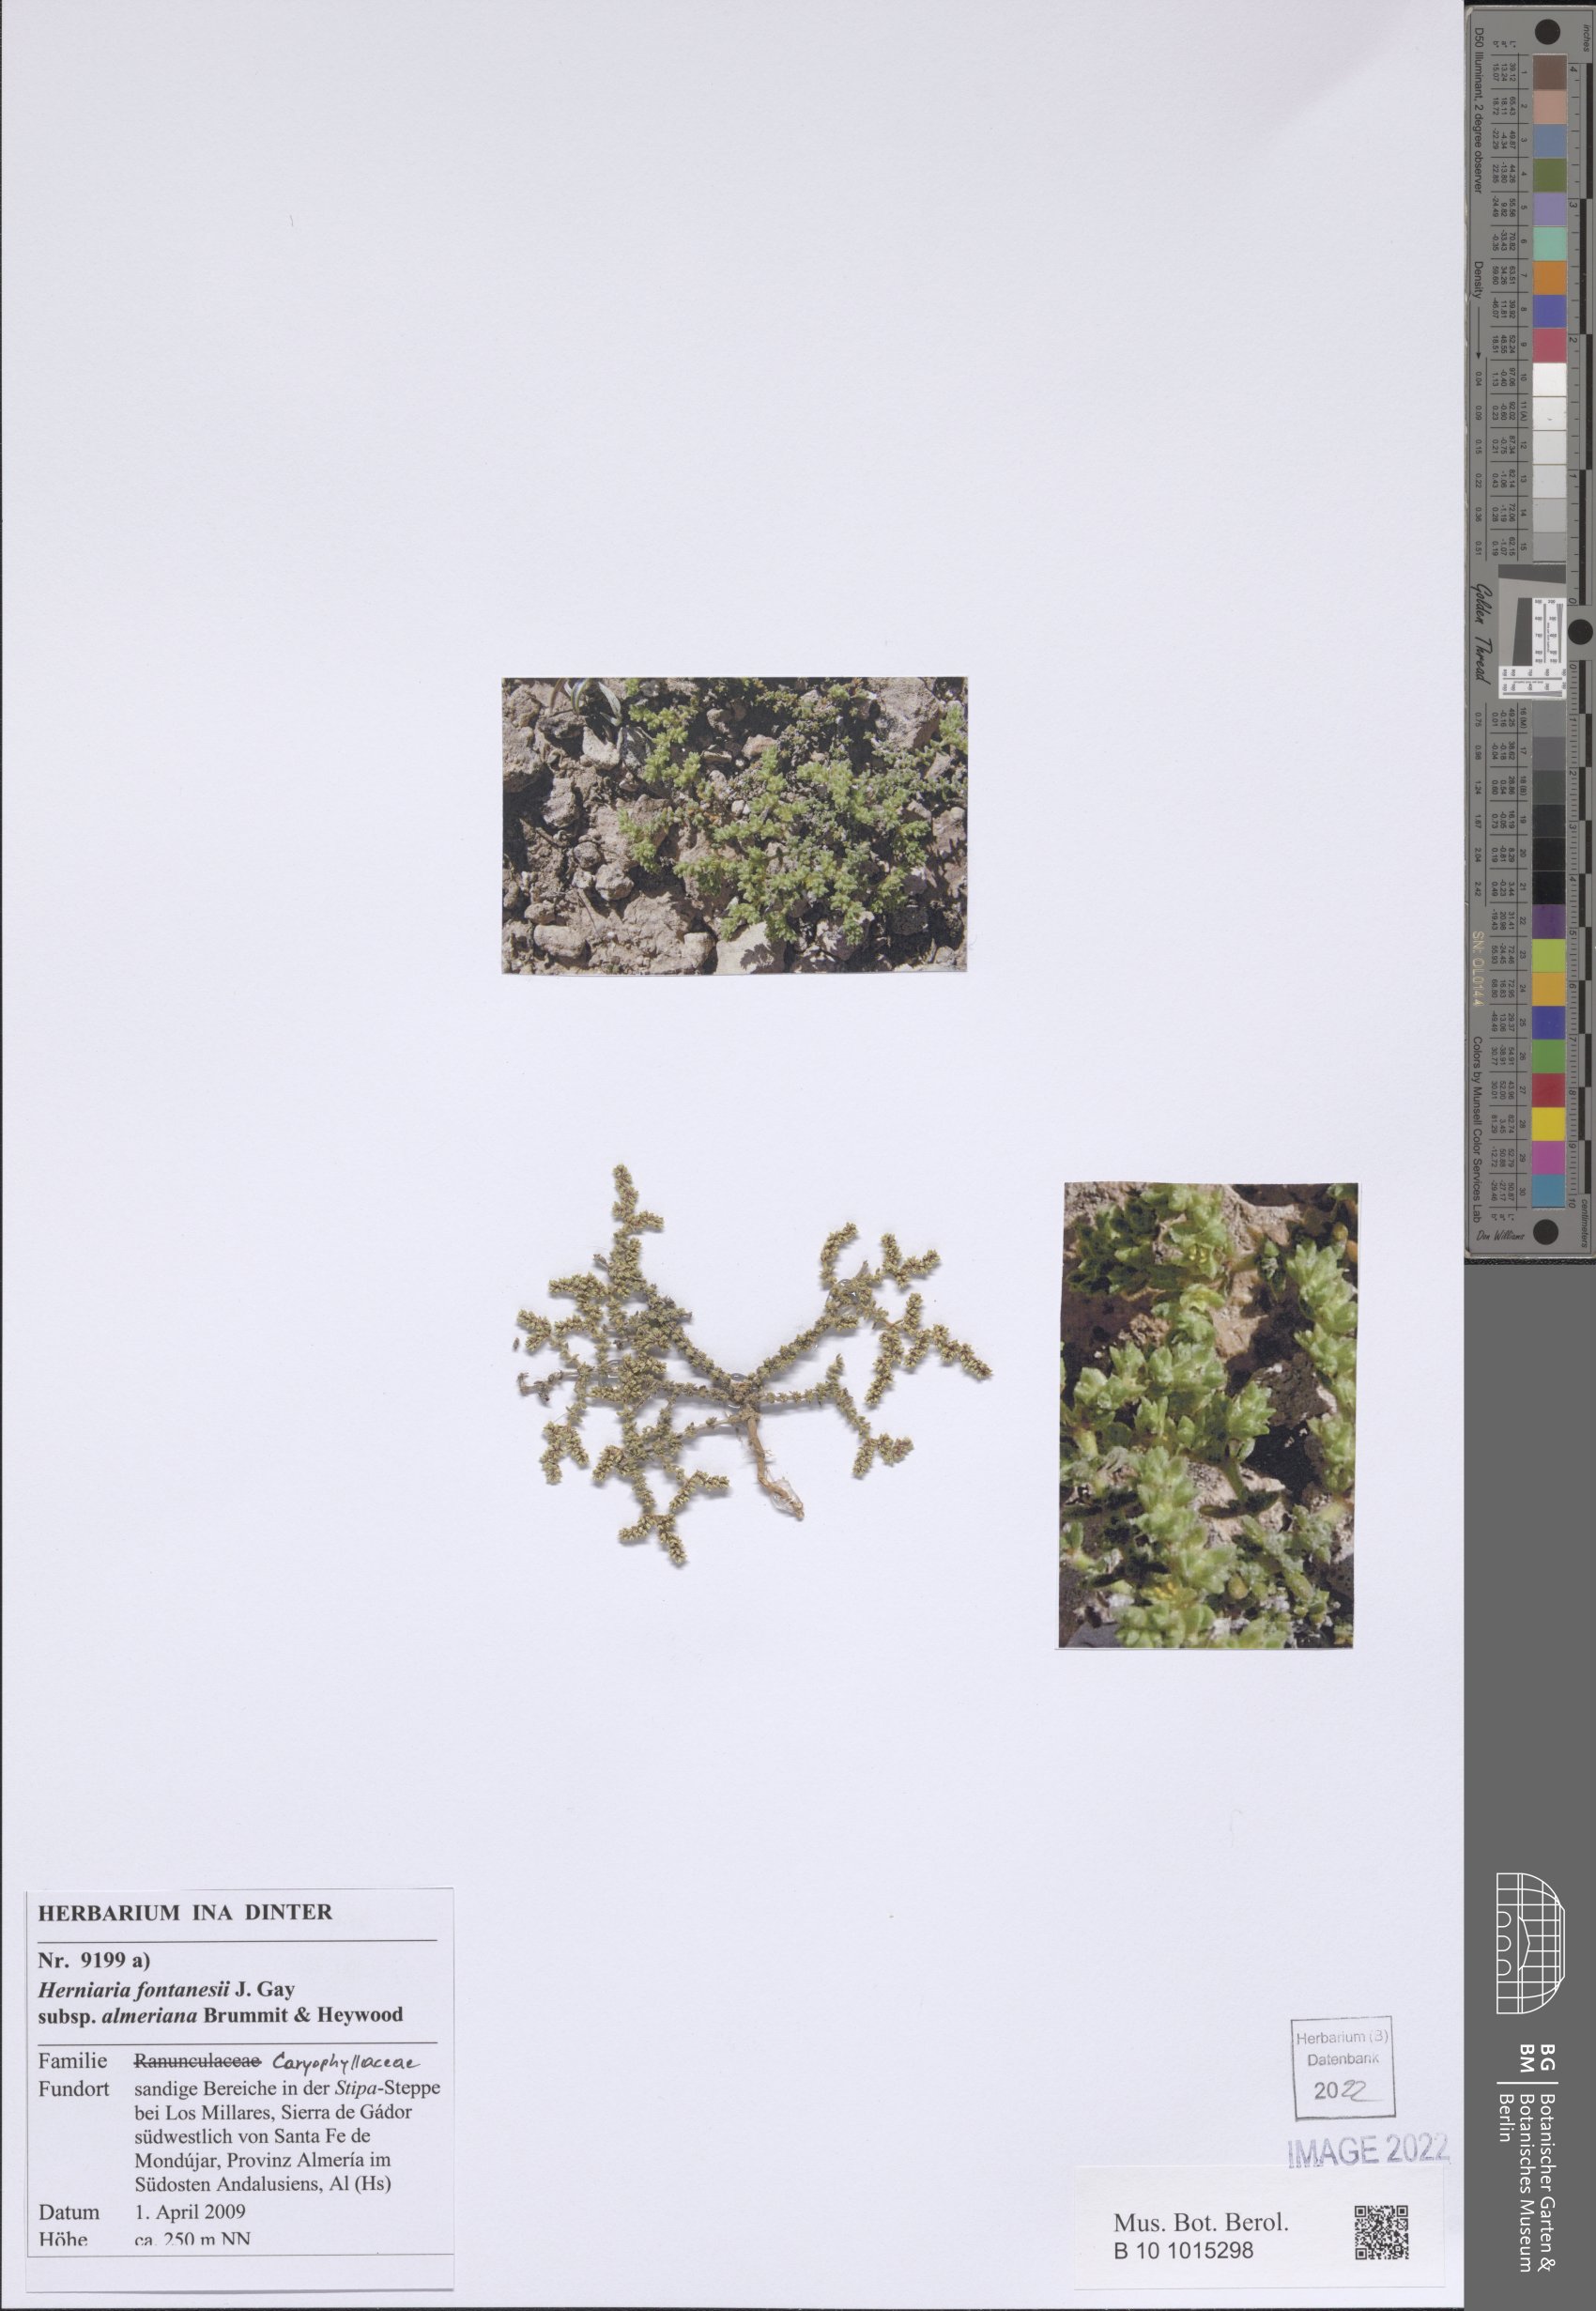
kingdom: Plantae
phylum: Tracheophyta
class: Magnoliopsida
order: Caryophyllales
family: Caryophyllaceae
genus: Herniaria
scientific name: Herniaria fontanesii
